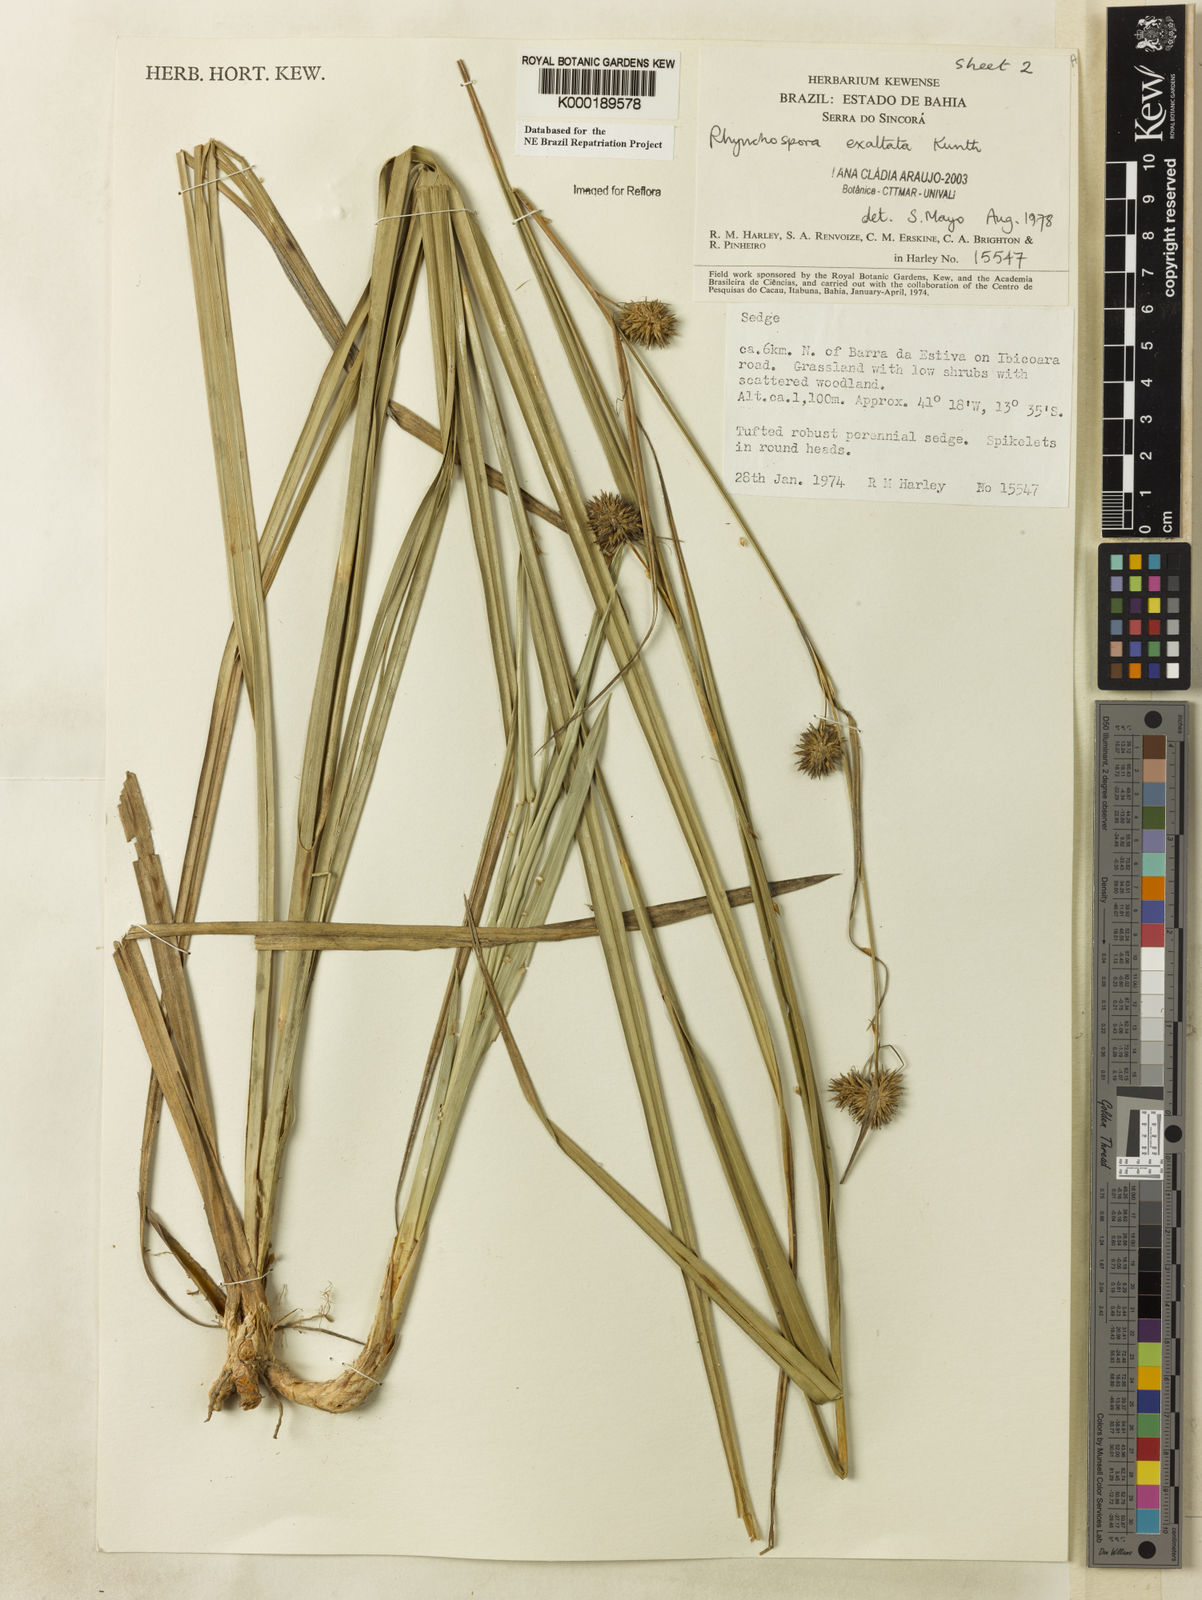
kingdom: Plantae
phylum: Tracheophyta
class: Liliopsida
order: Poales
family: Cyperaceae
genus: Rhynchospora
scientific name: Rhynchospora exaltata
